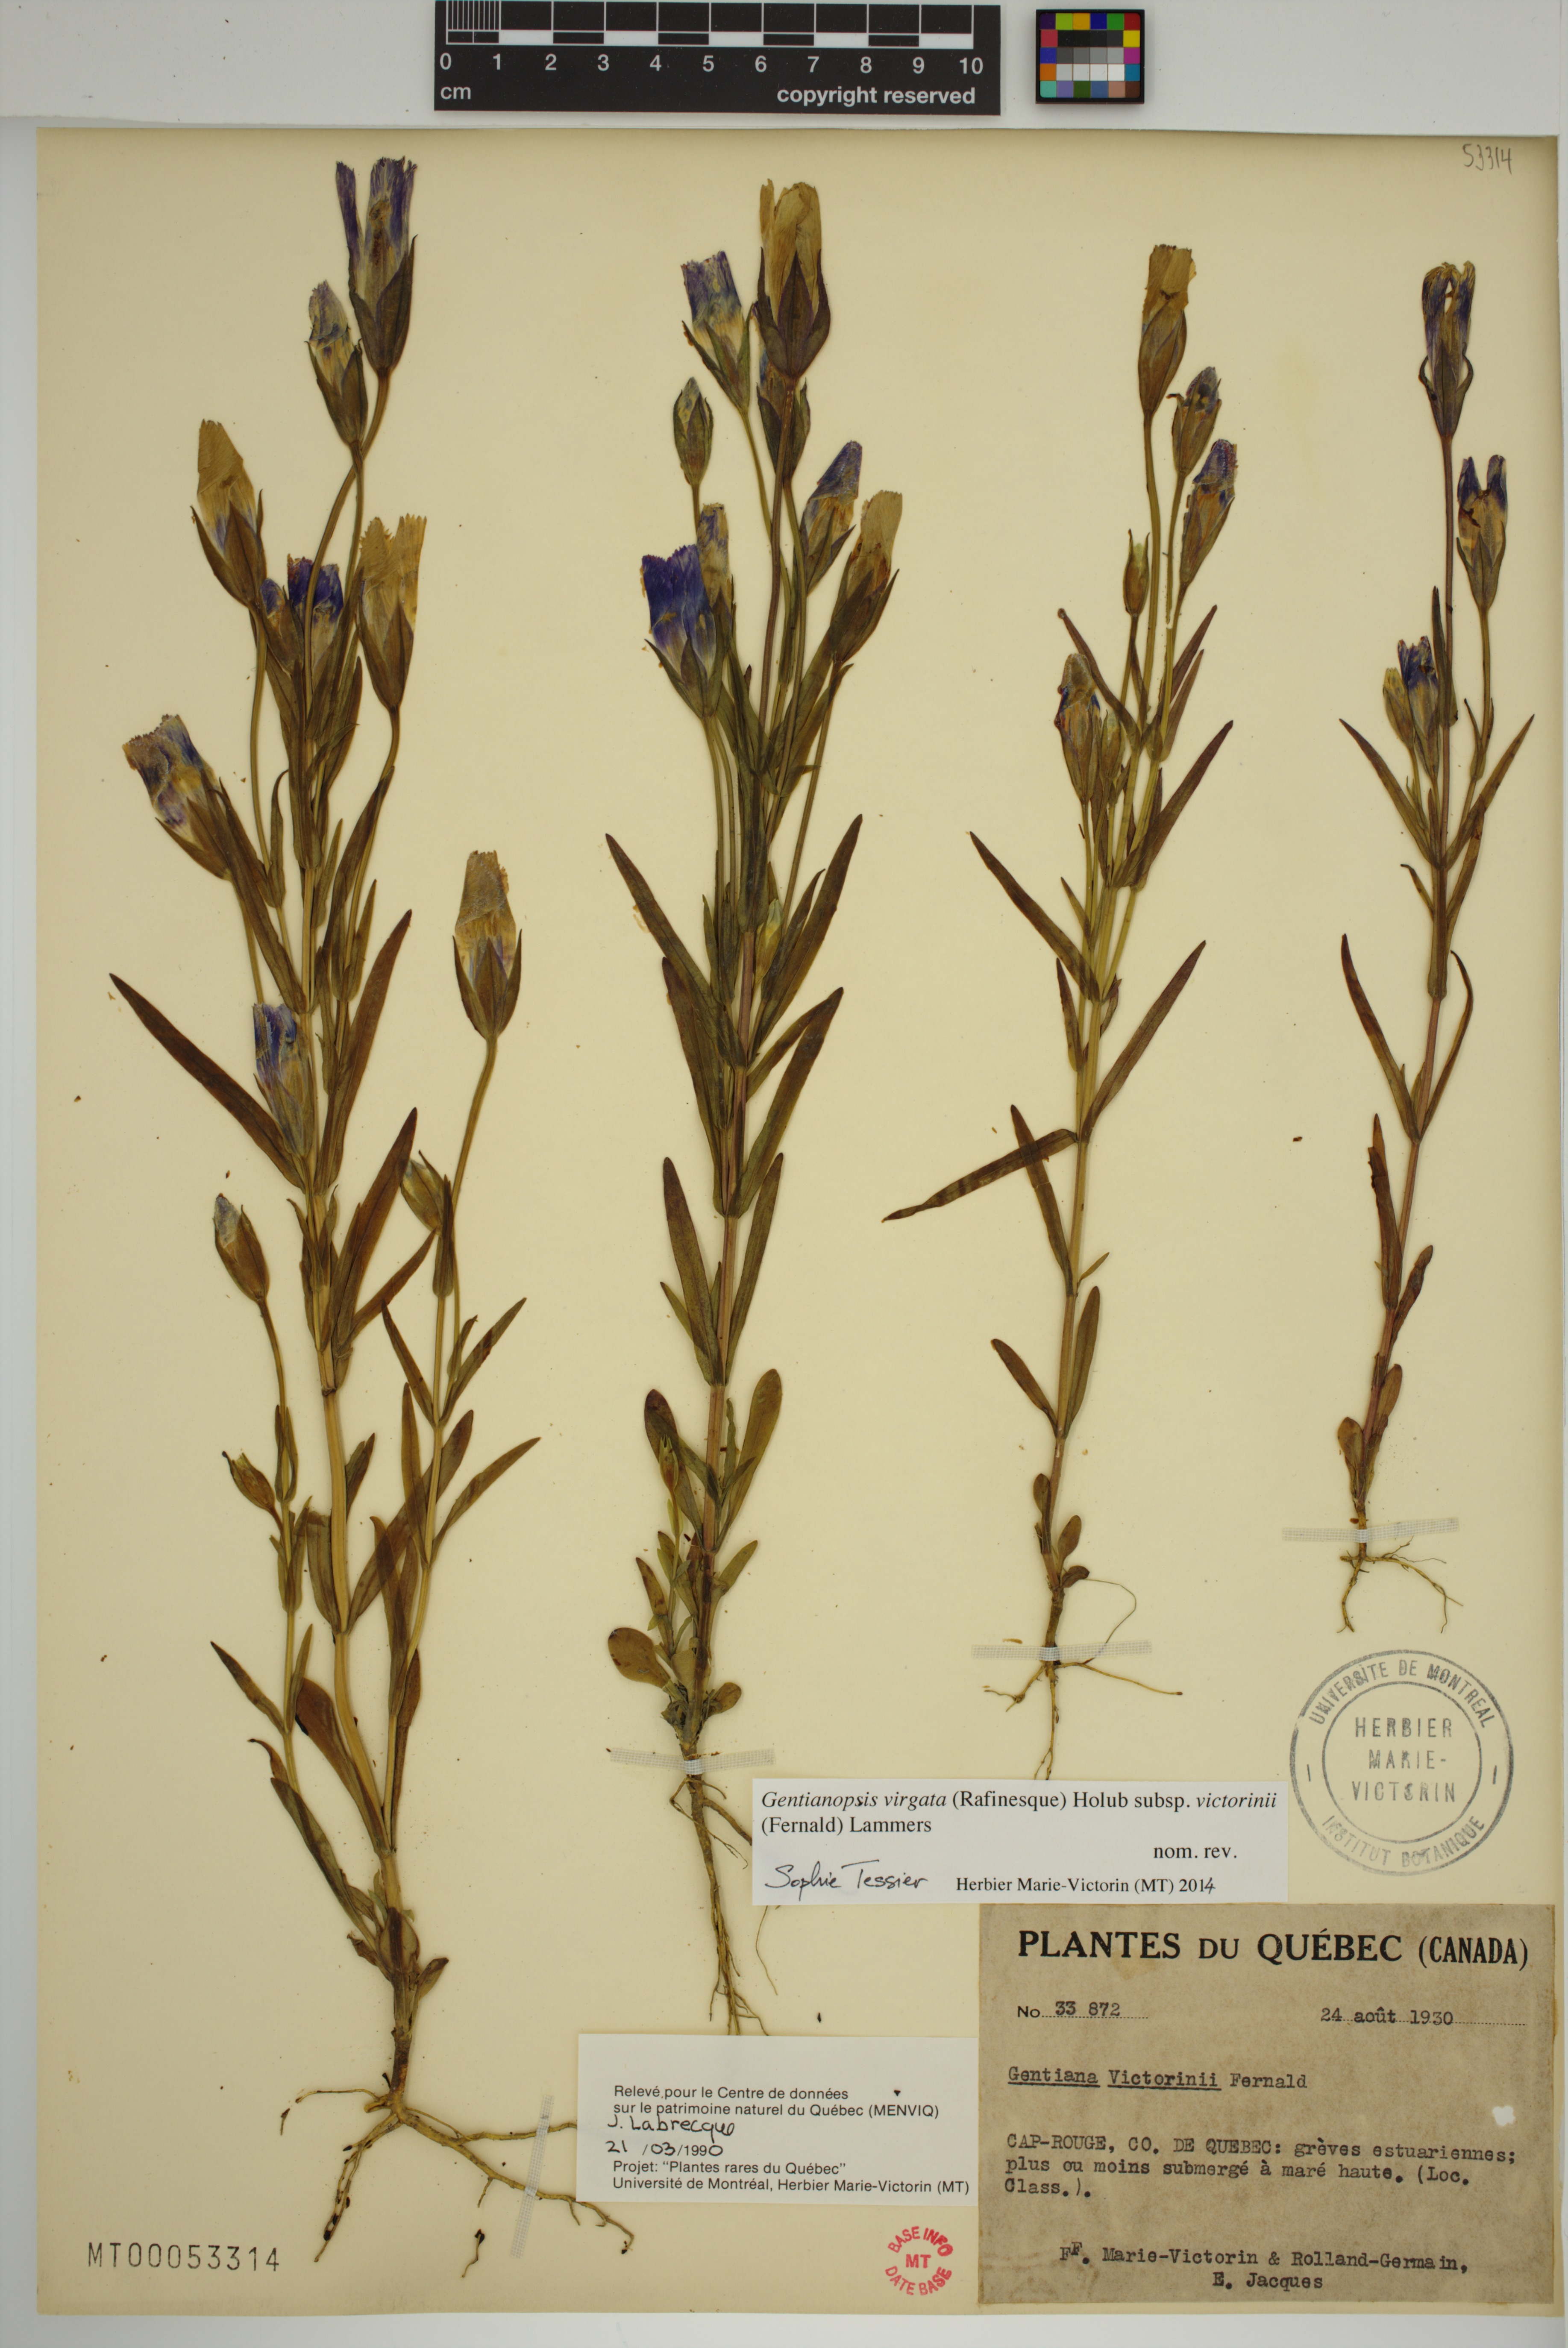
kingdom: Plantae
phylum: Tracheophyta
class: Magnoliopsida
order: Gentianales
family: Gentianaceae
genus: Gentianopsis
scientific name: Gentianopsis victorinii
